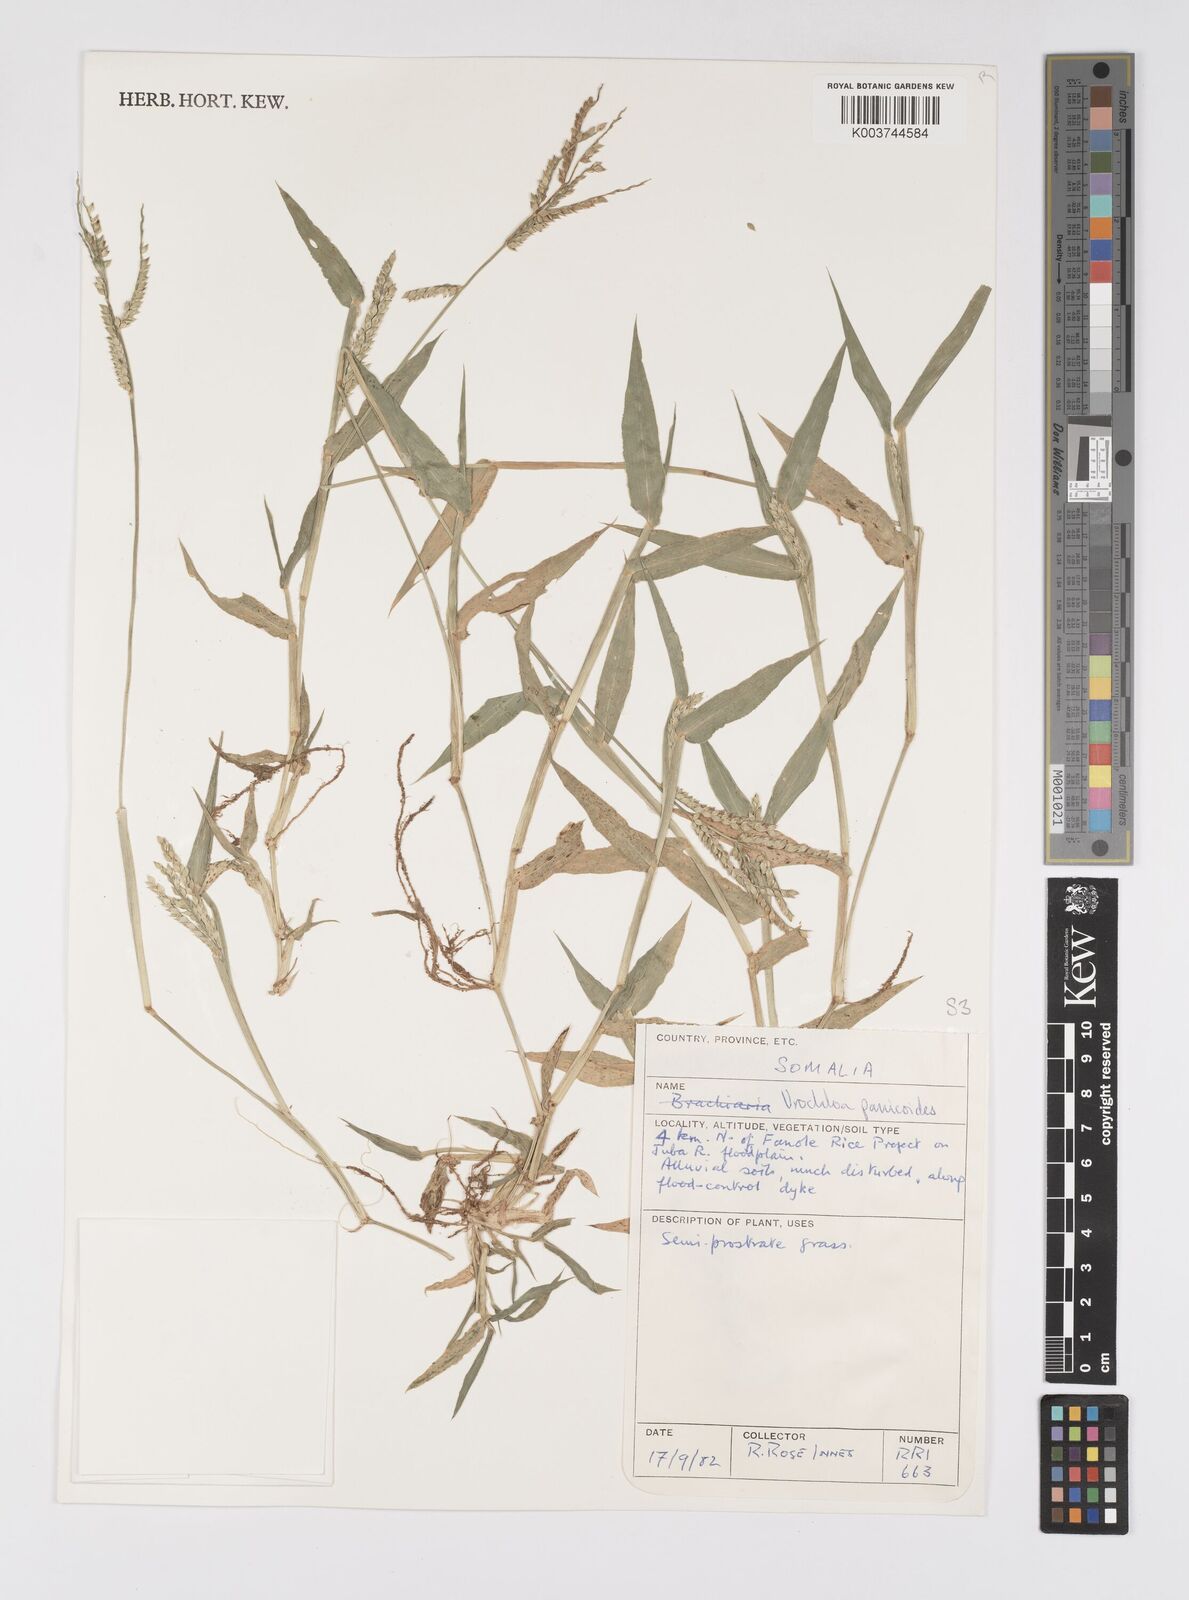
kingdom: Plantae
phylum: Tracheophyta
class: Liliopsida
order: Poales
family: Poaceae
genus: Urochloa
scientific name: Urochloa panicoides
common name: Sharp-flowered signal-grass
